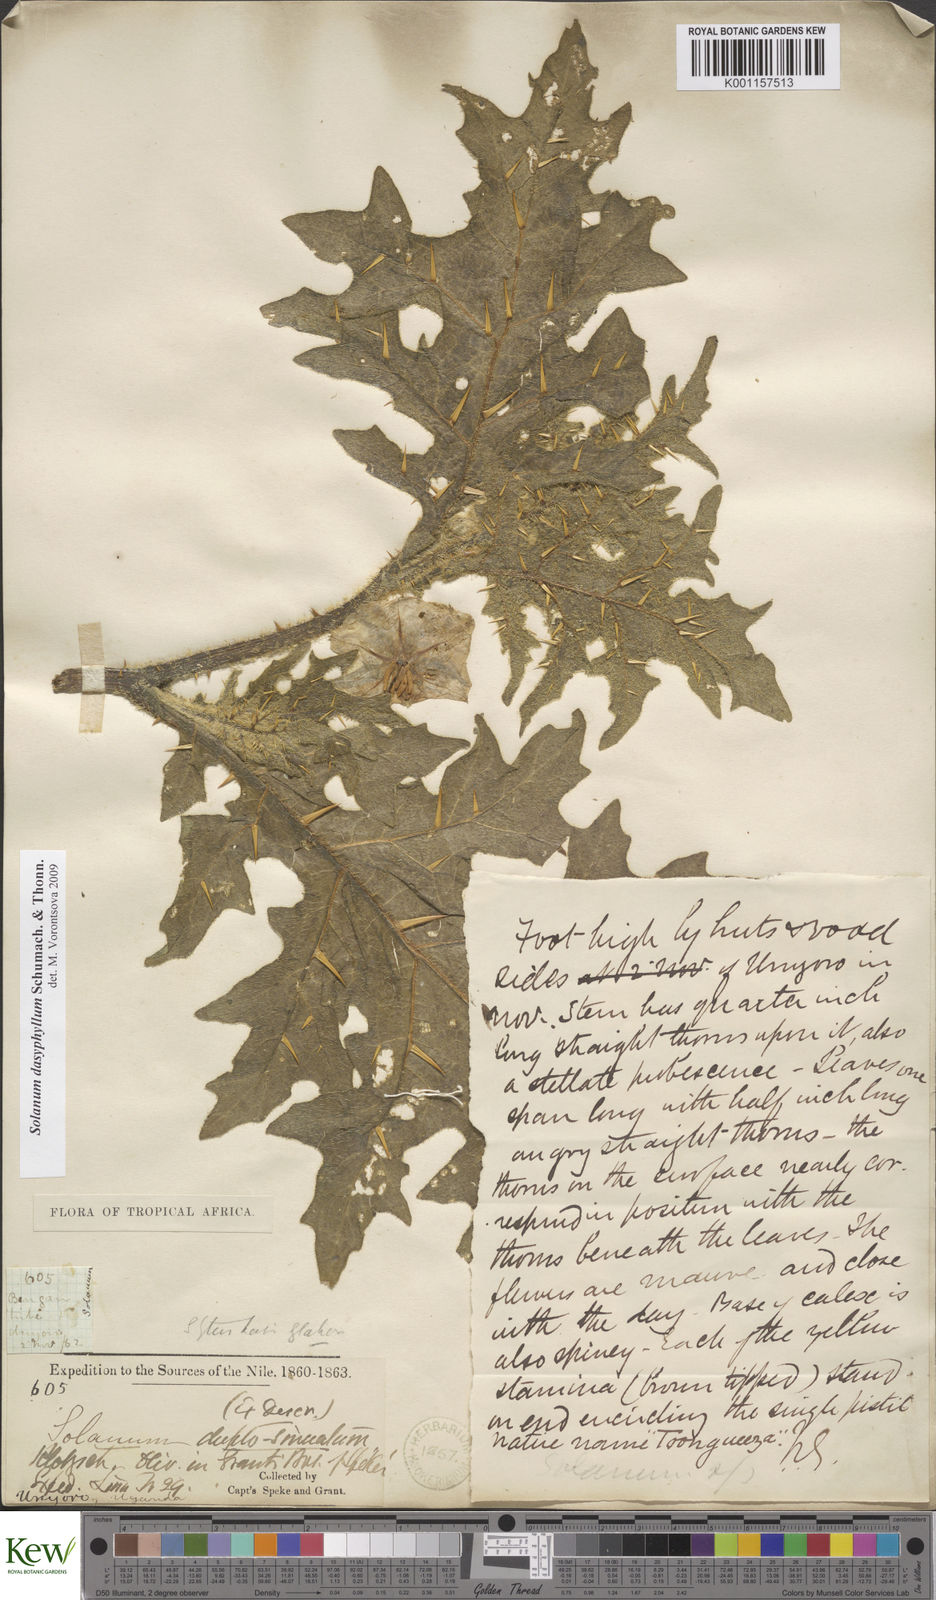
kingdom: Plantae
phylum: Tracheophyta
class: Magnoliopsida
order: Solanales
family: Solanaceae
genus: Solanum
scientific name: Solanum dasyphyllum
